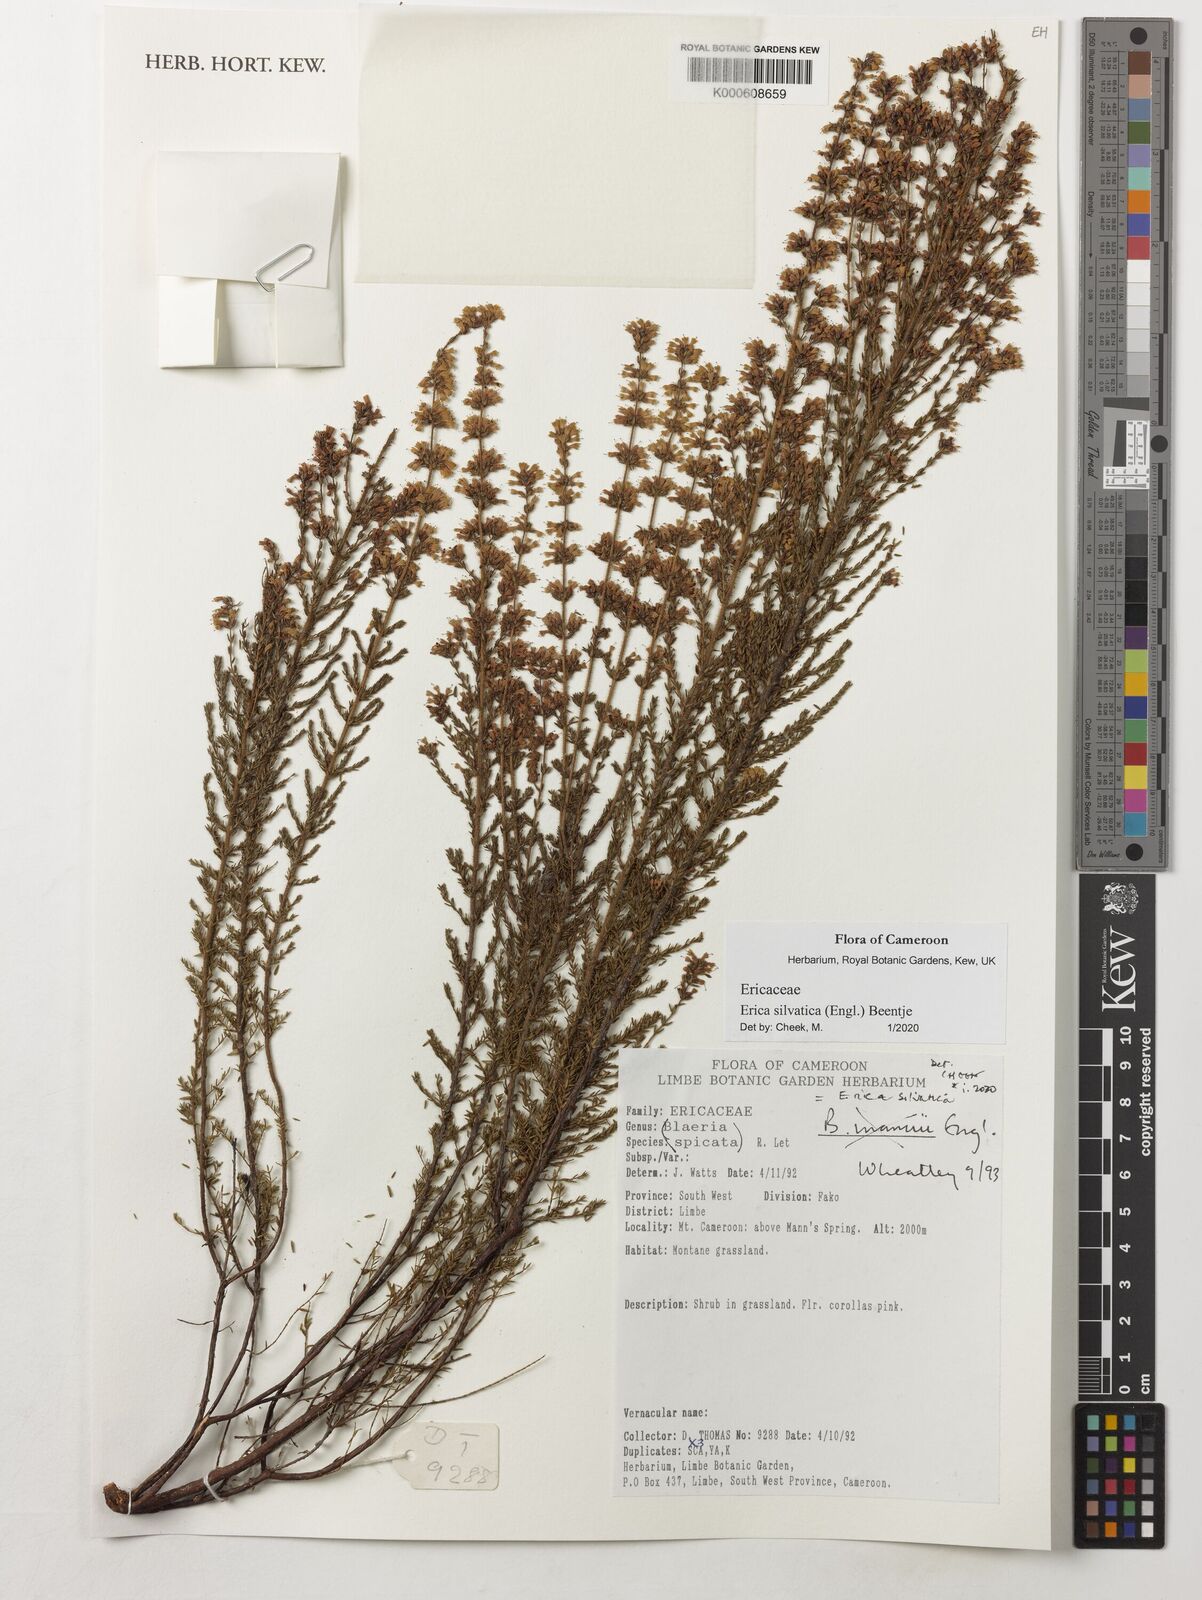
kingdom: Plantae
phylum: Tracheophyta
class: Magnoliopsida
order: Ericales
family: Ericaceae
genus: Erica
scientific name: Erica silvatica
